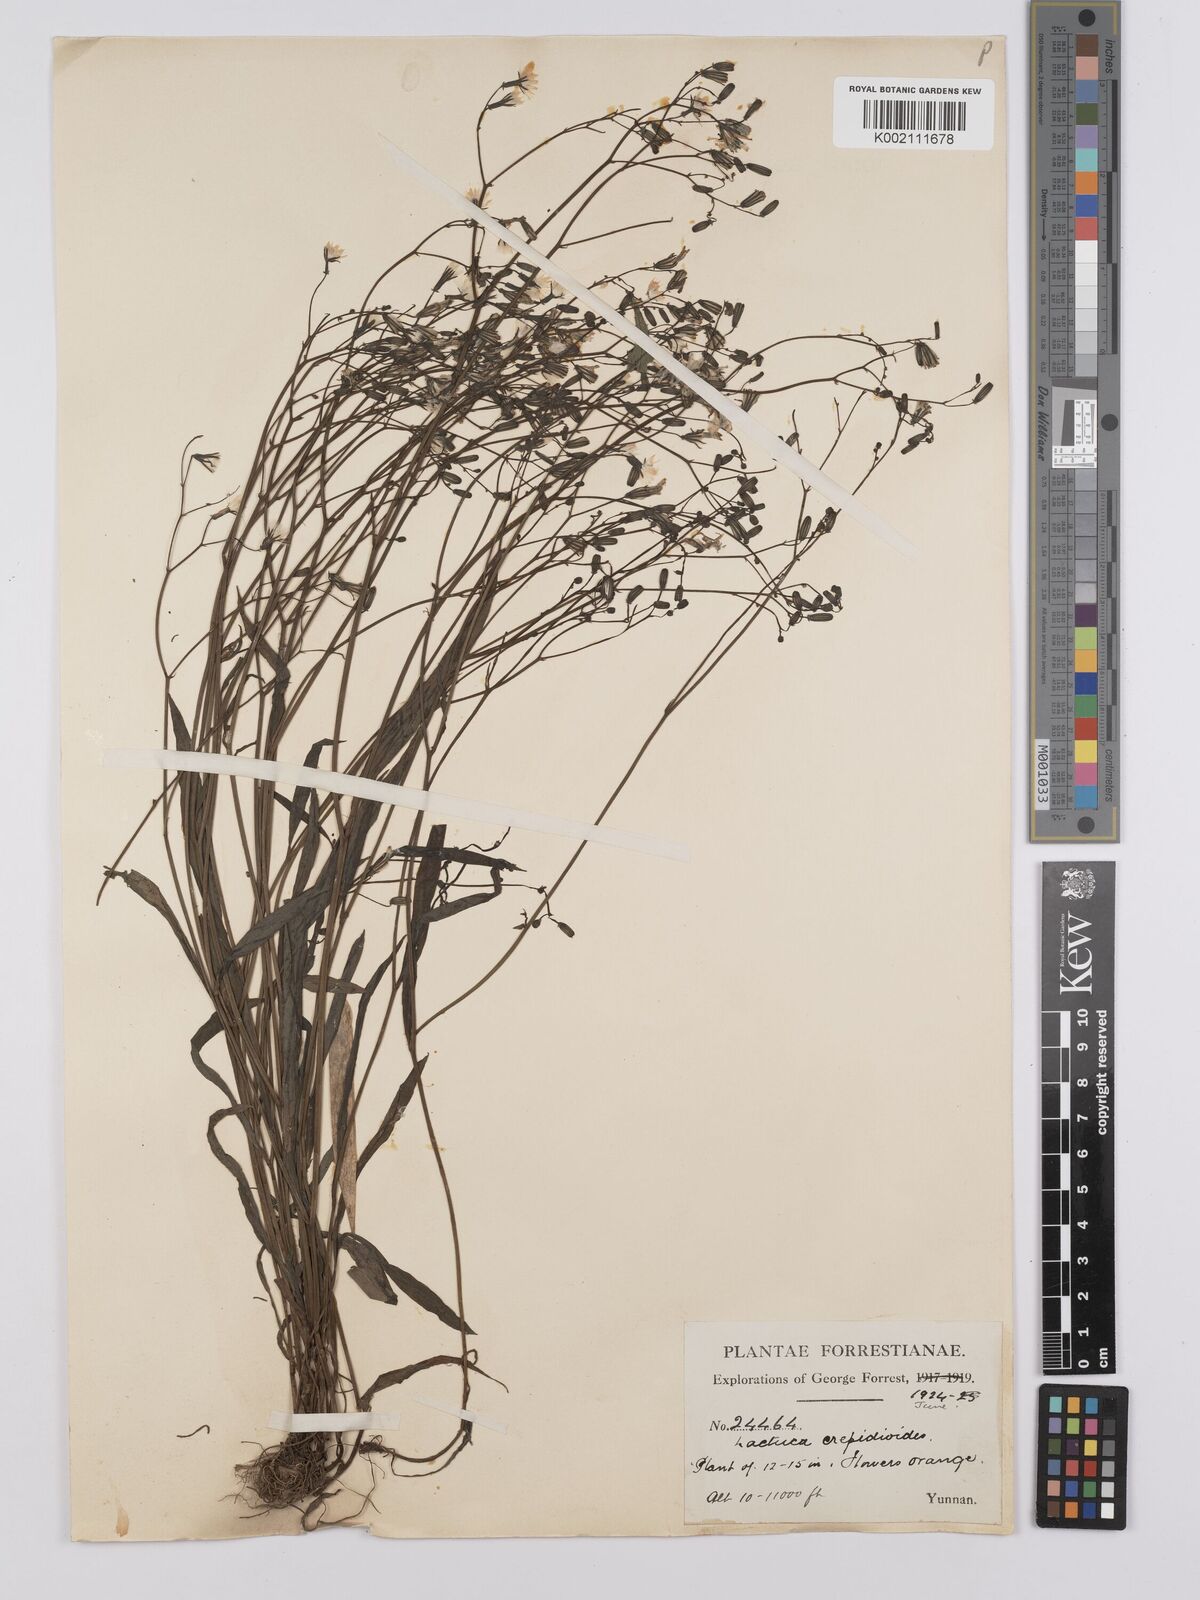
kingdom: Plantae
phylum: Tracheophyta
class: Magnoliopsida
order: Asterales
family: Asteraceae
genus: Ixeridium
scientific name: Ixeridium dentatum
